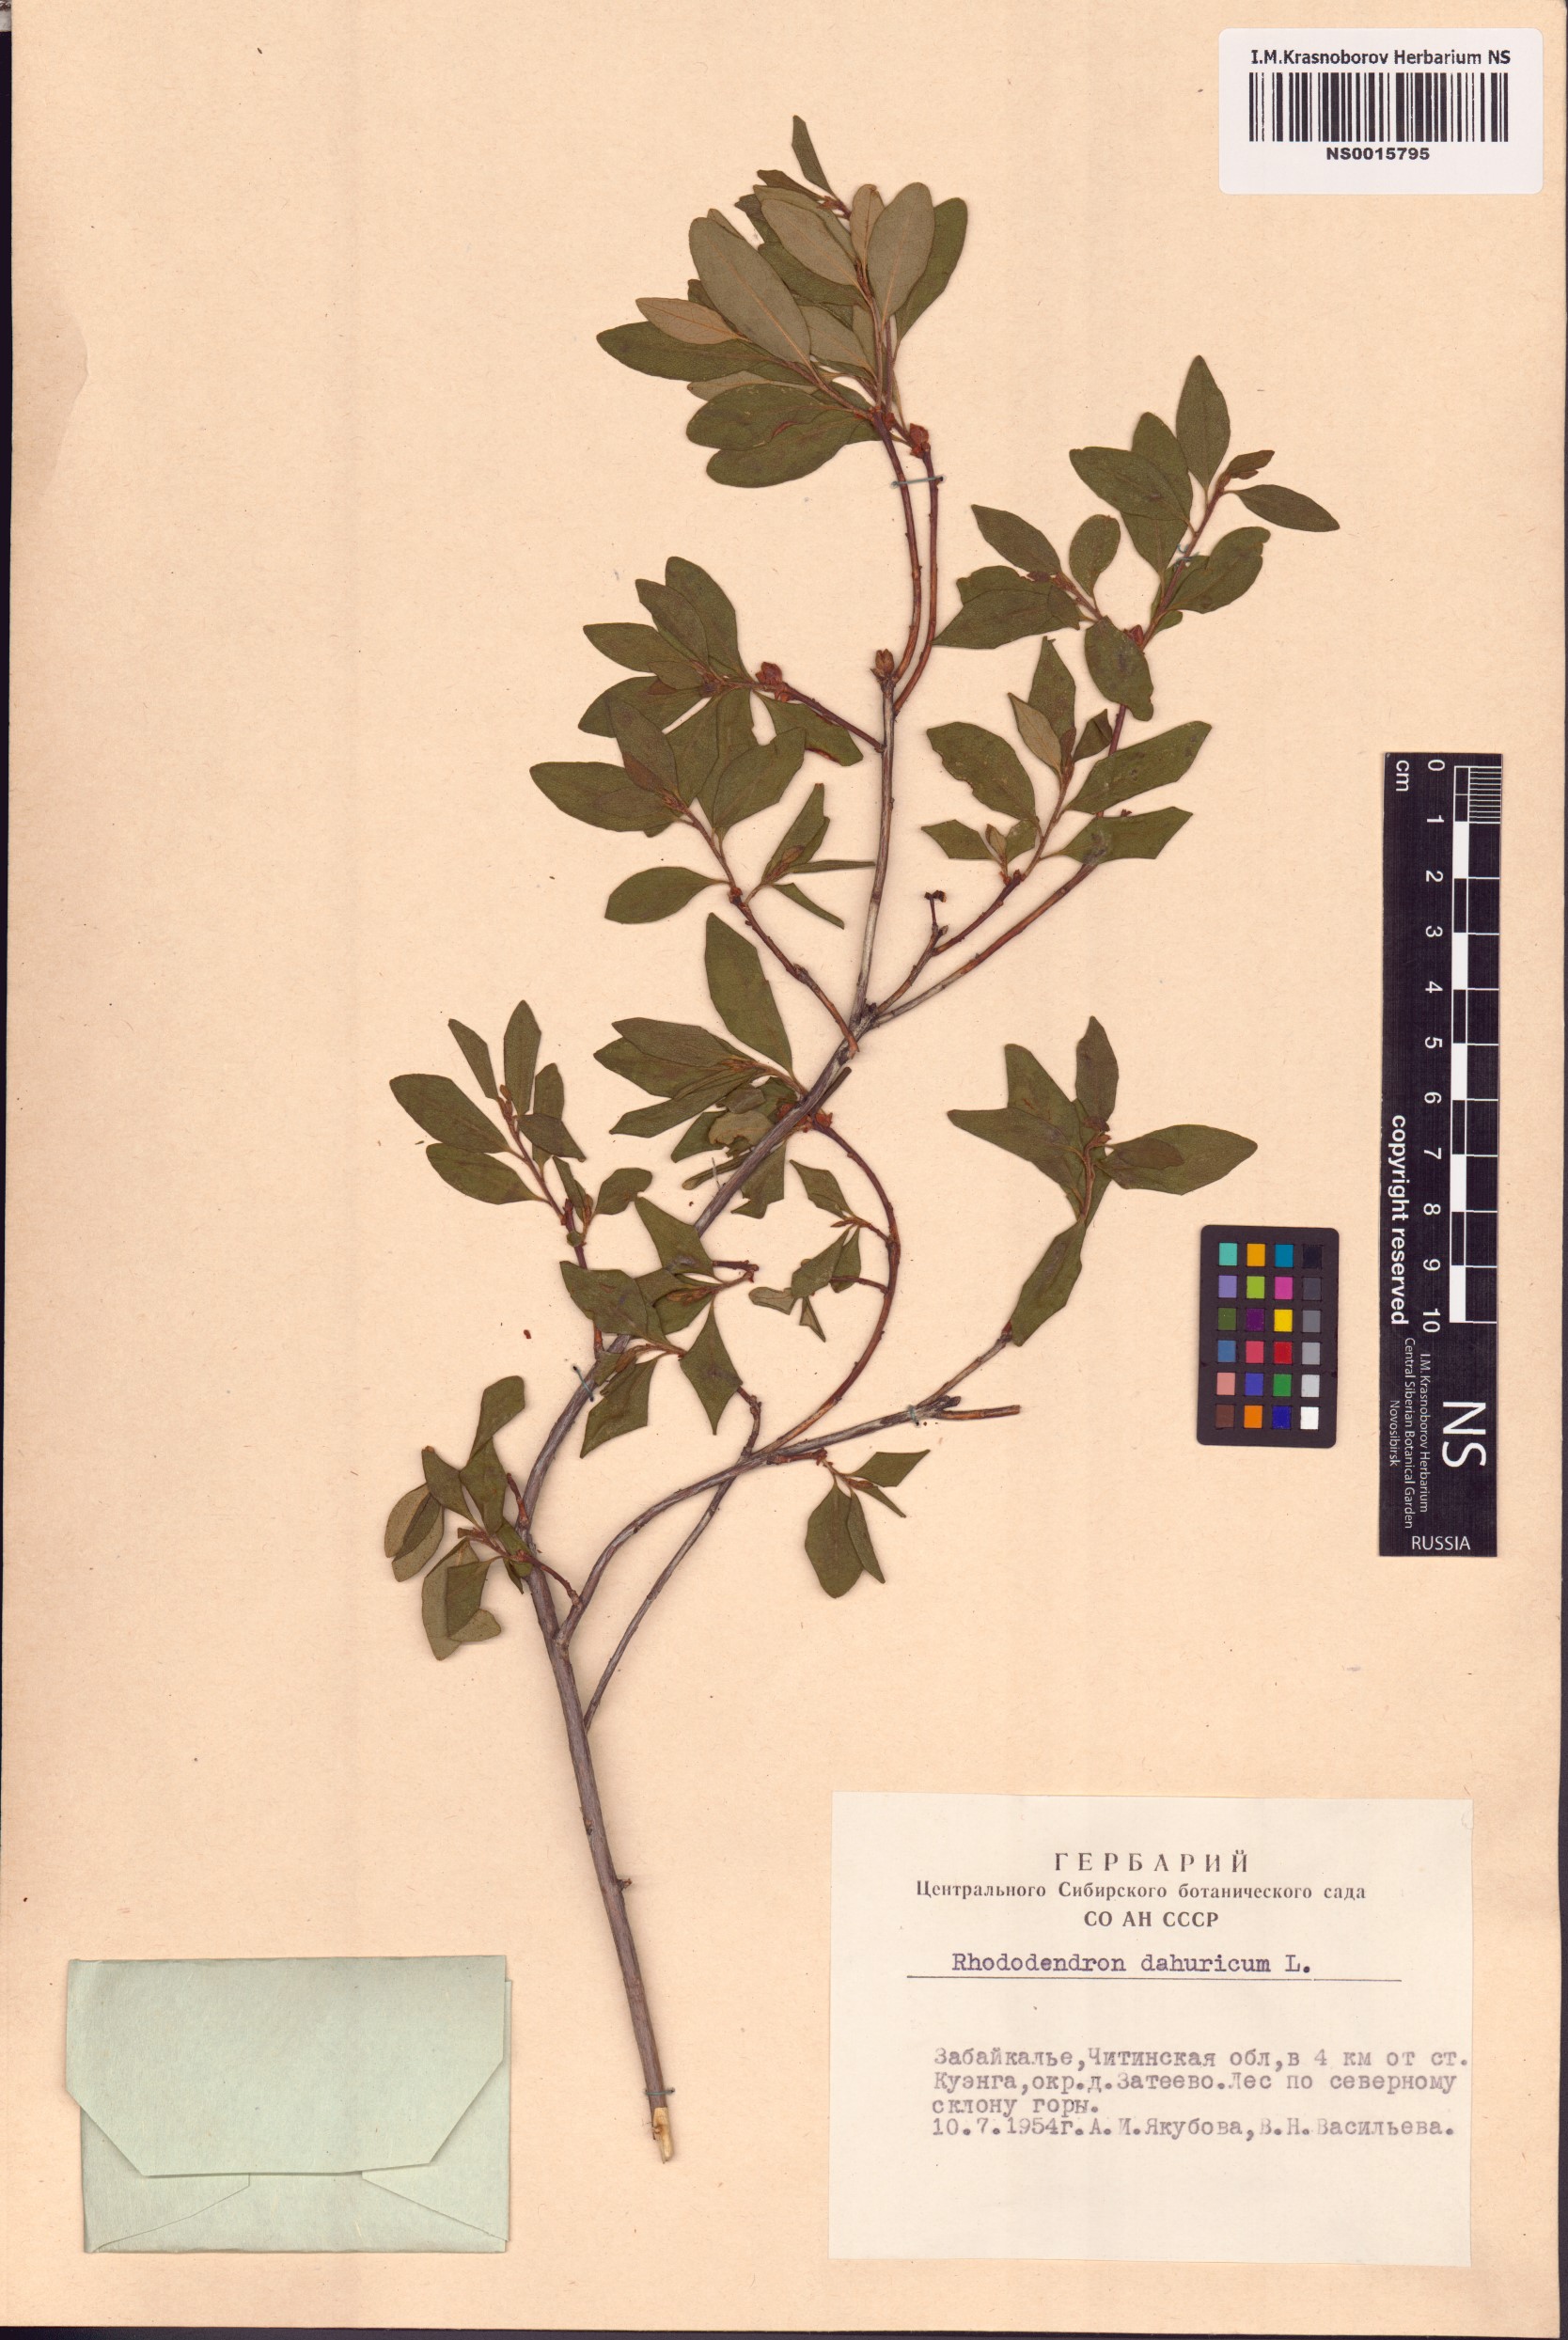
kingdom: Plantae
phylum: Tracheophyta
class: Magnoliopsida
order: Ericales
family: Ericaceae
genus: Rhododendron
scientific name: Rhododendron dauricum
